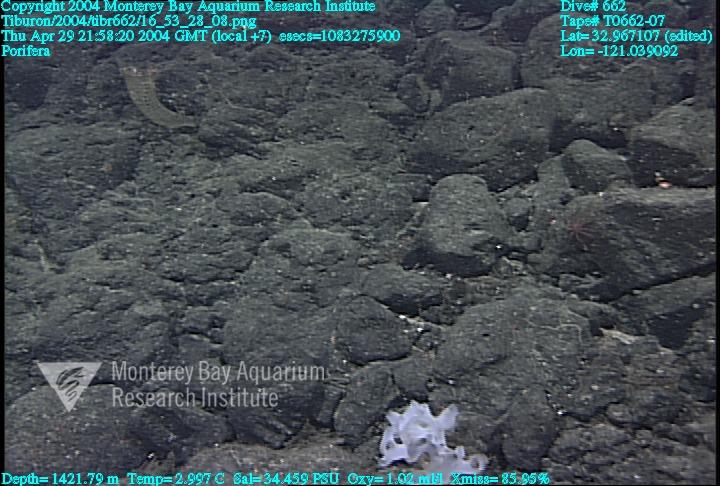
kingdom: Animalia
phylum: Porifera
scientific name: Porifera
